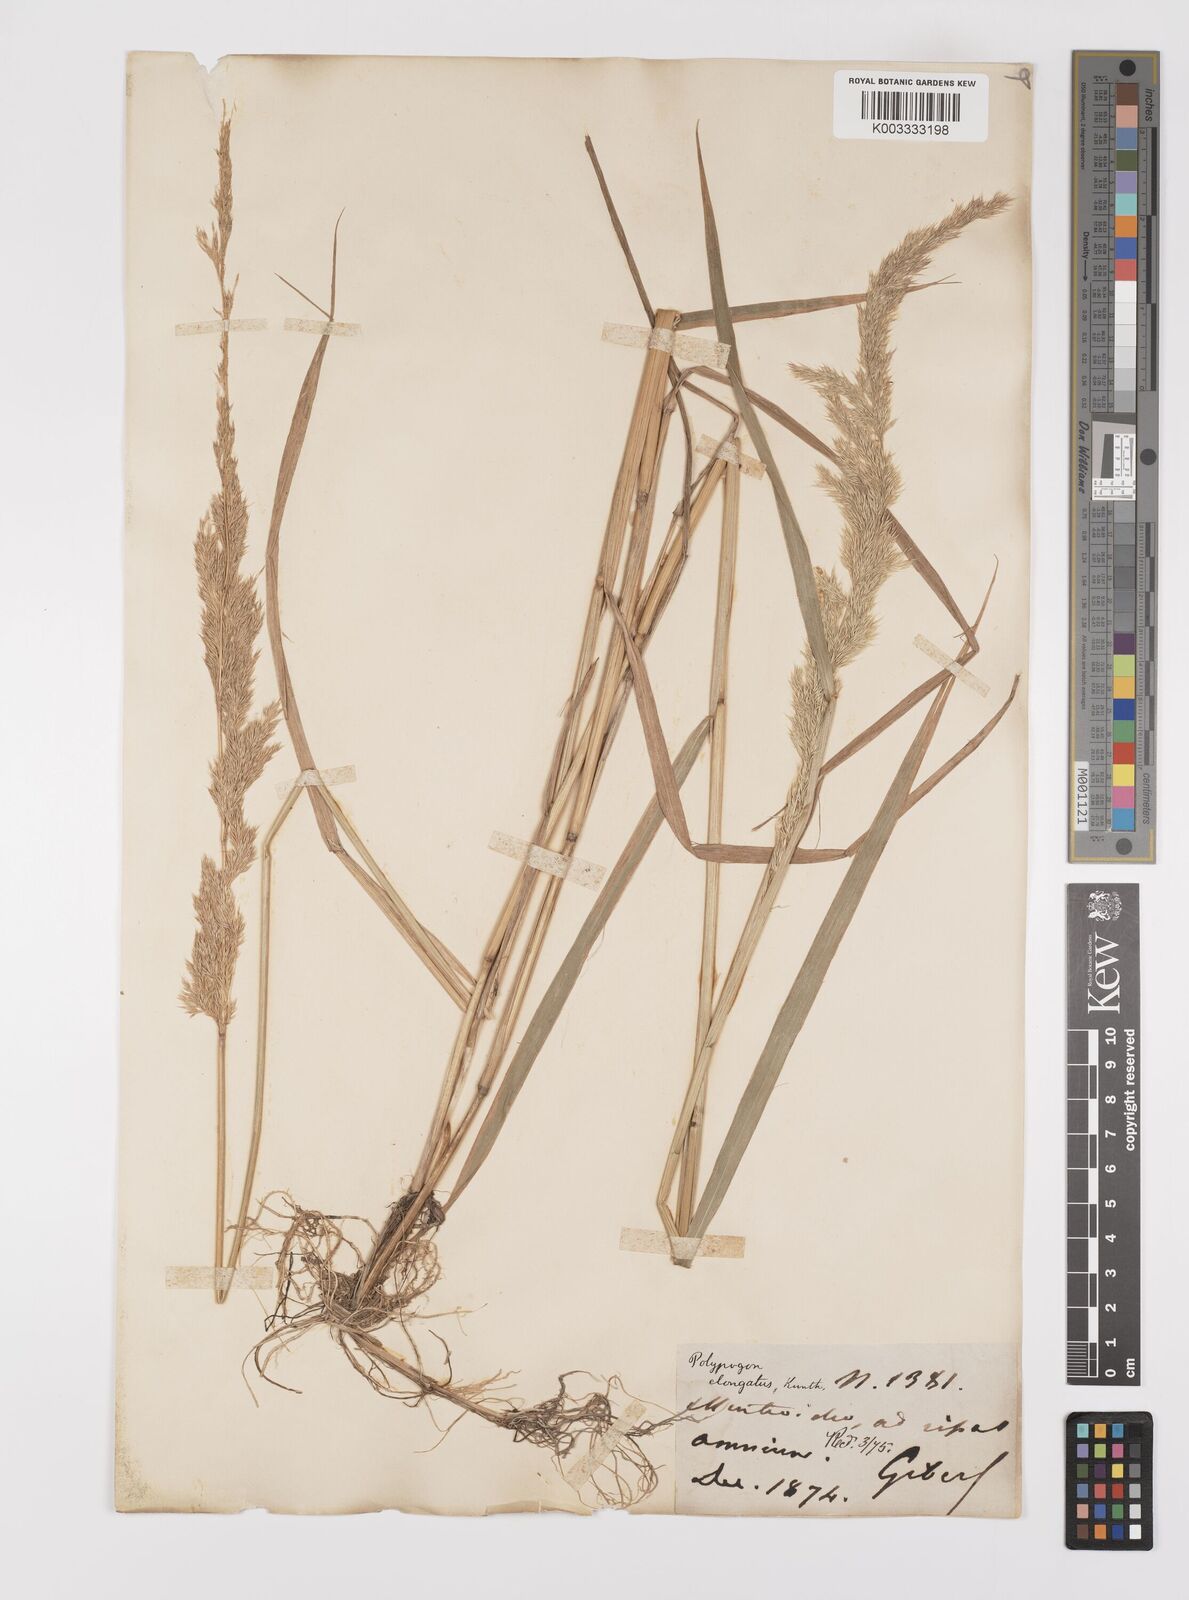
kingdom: Plantae
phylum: Tracheophyta
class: Liliopsida
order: Poales
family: Poaceae
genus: Polypogon
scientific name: Polypogon elongatus
